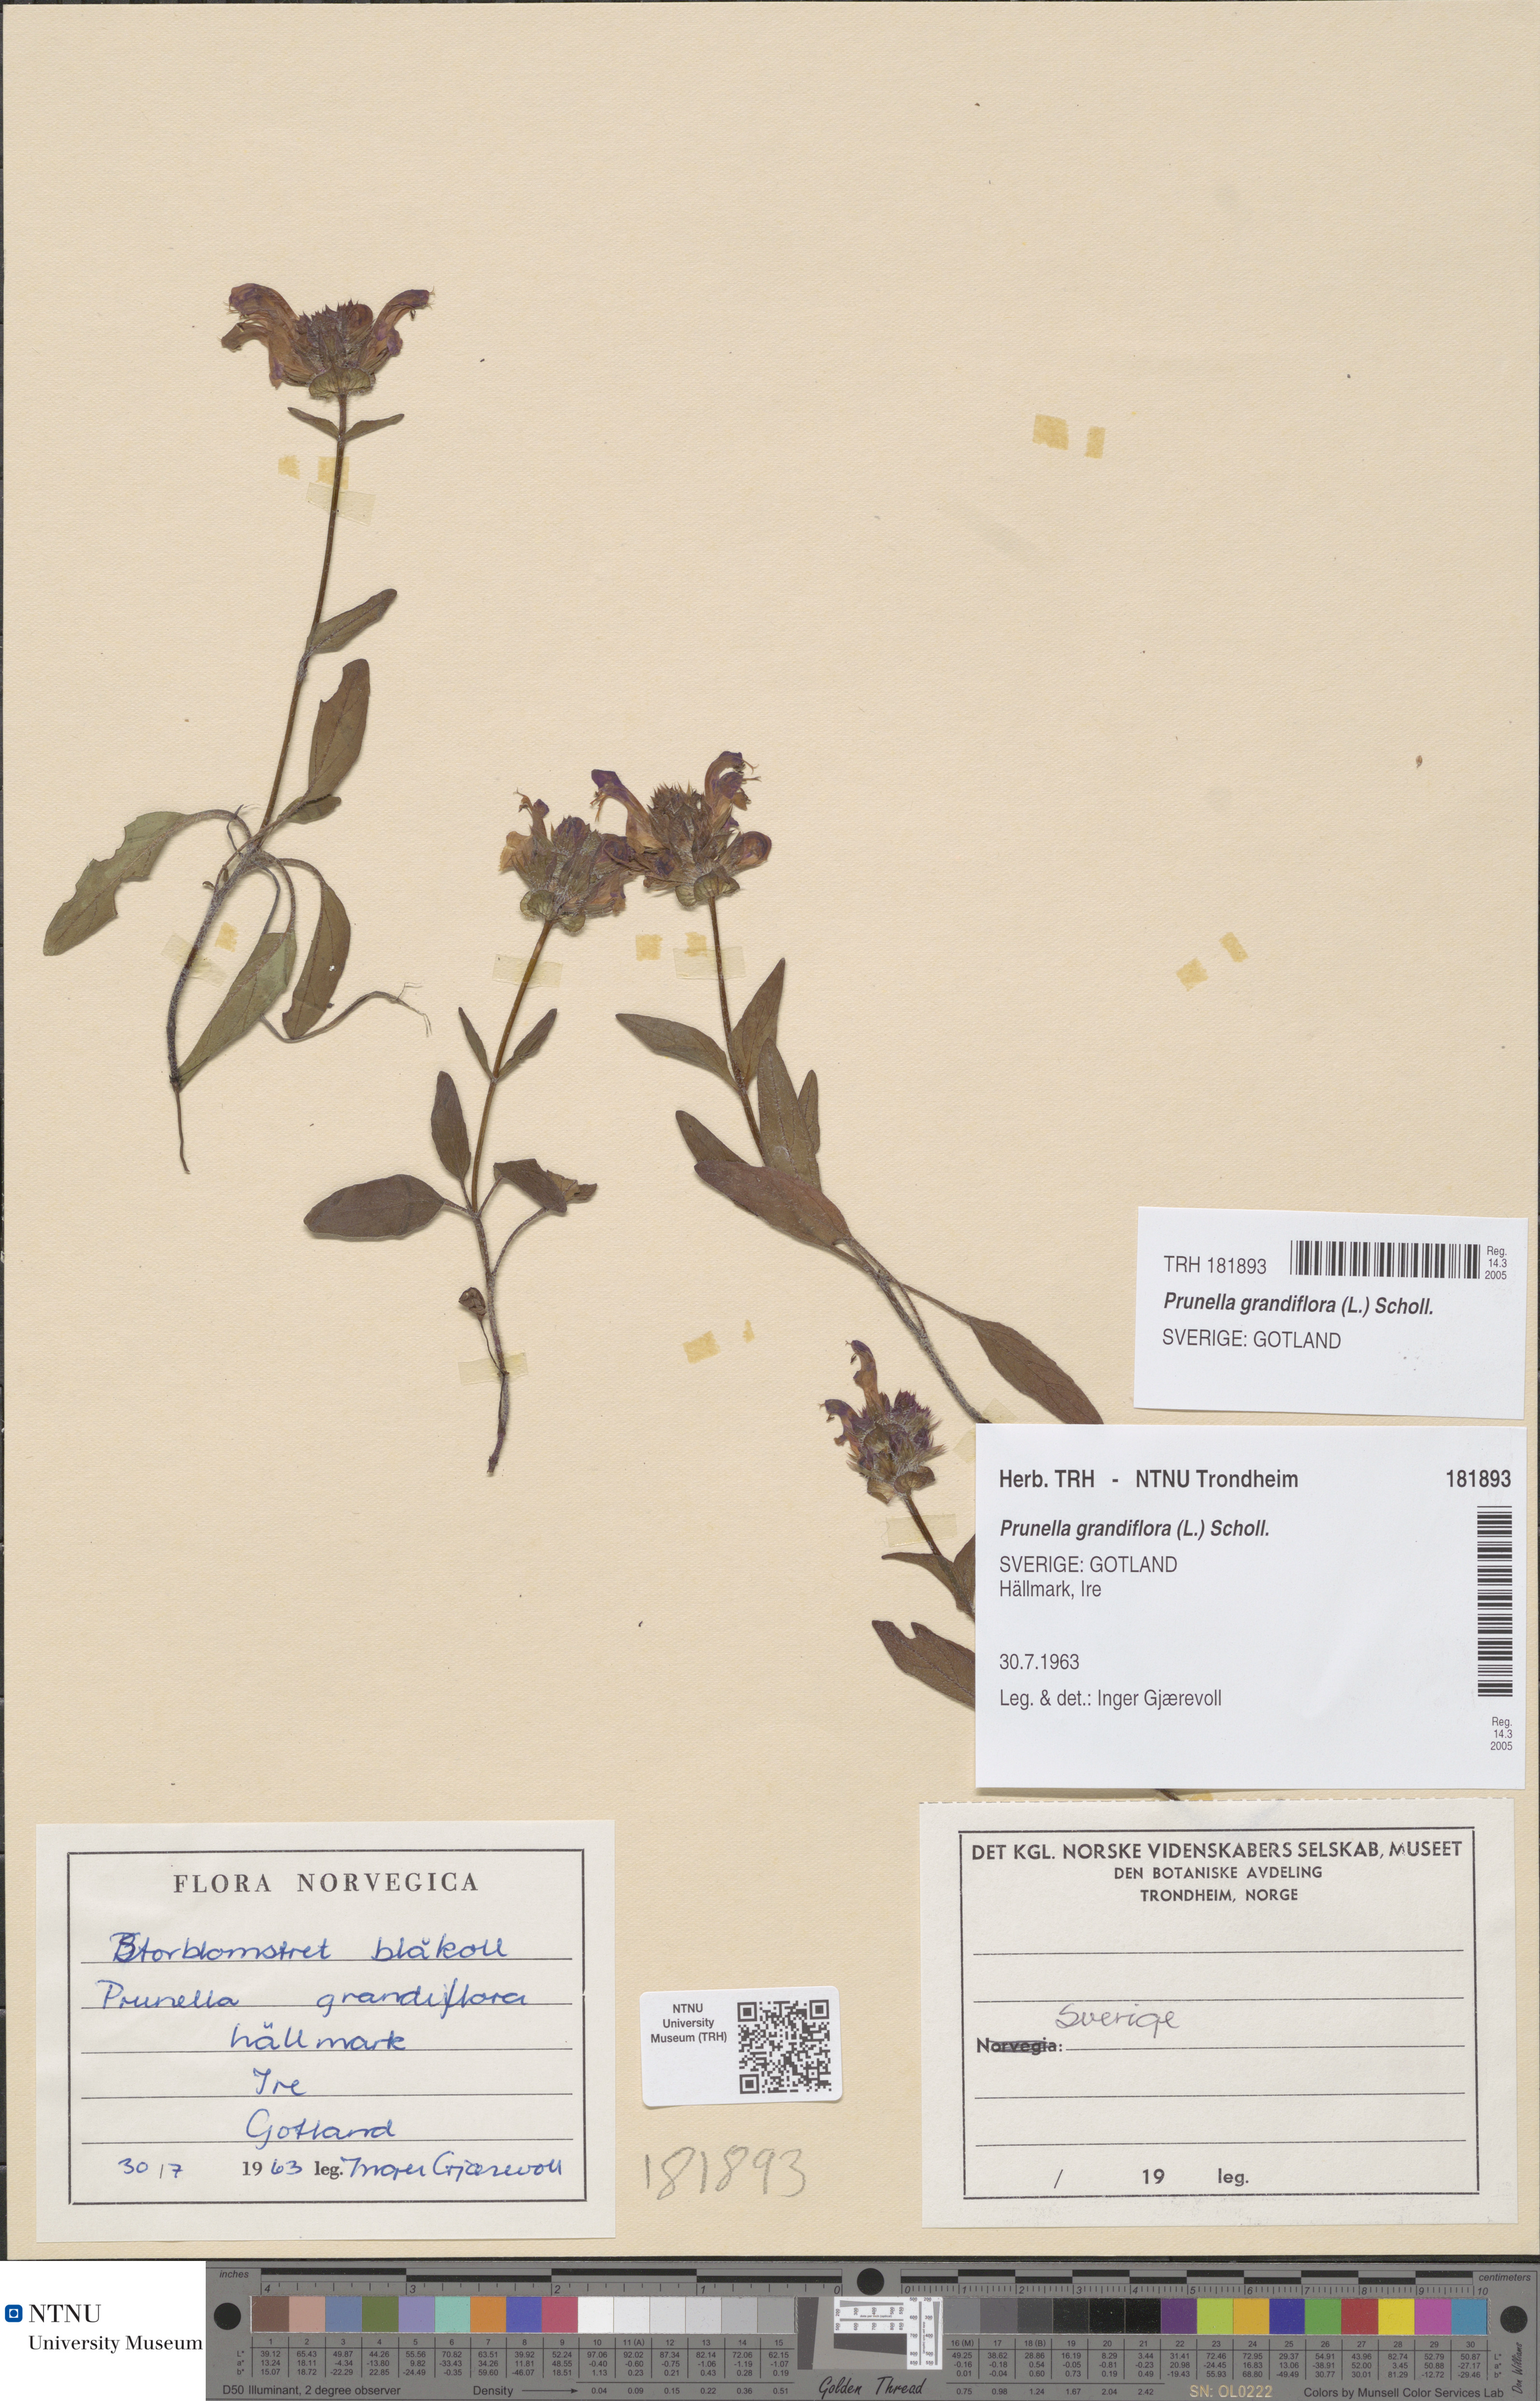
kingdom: Plantae
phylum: Tracheophyta
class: Magnoliopsida
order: Lamiales
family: Lamiaceae
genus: Prunella
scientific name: Prunella grandiflora
